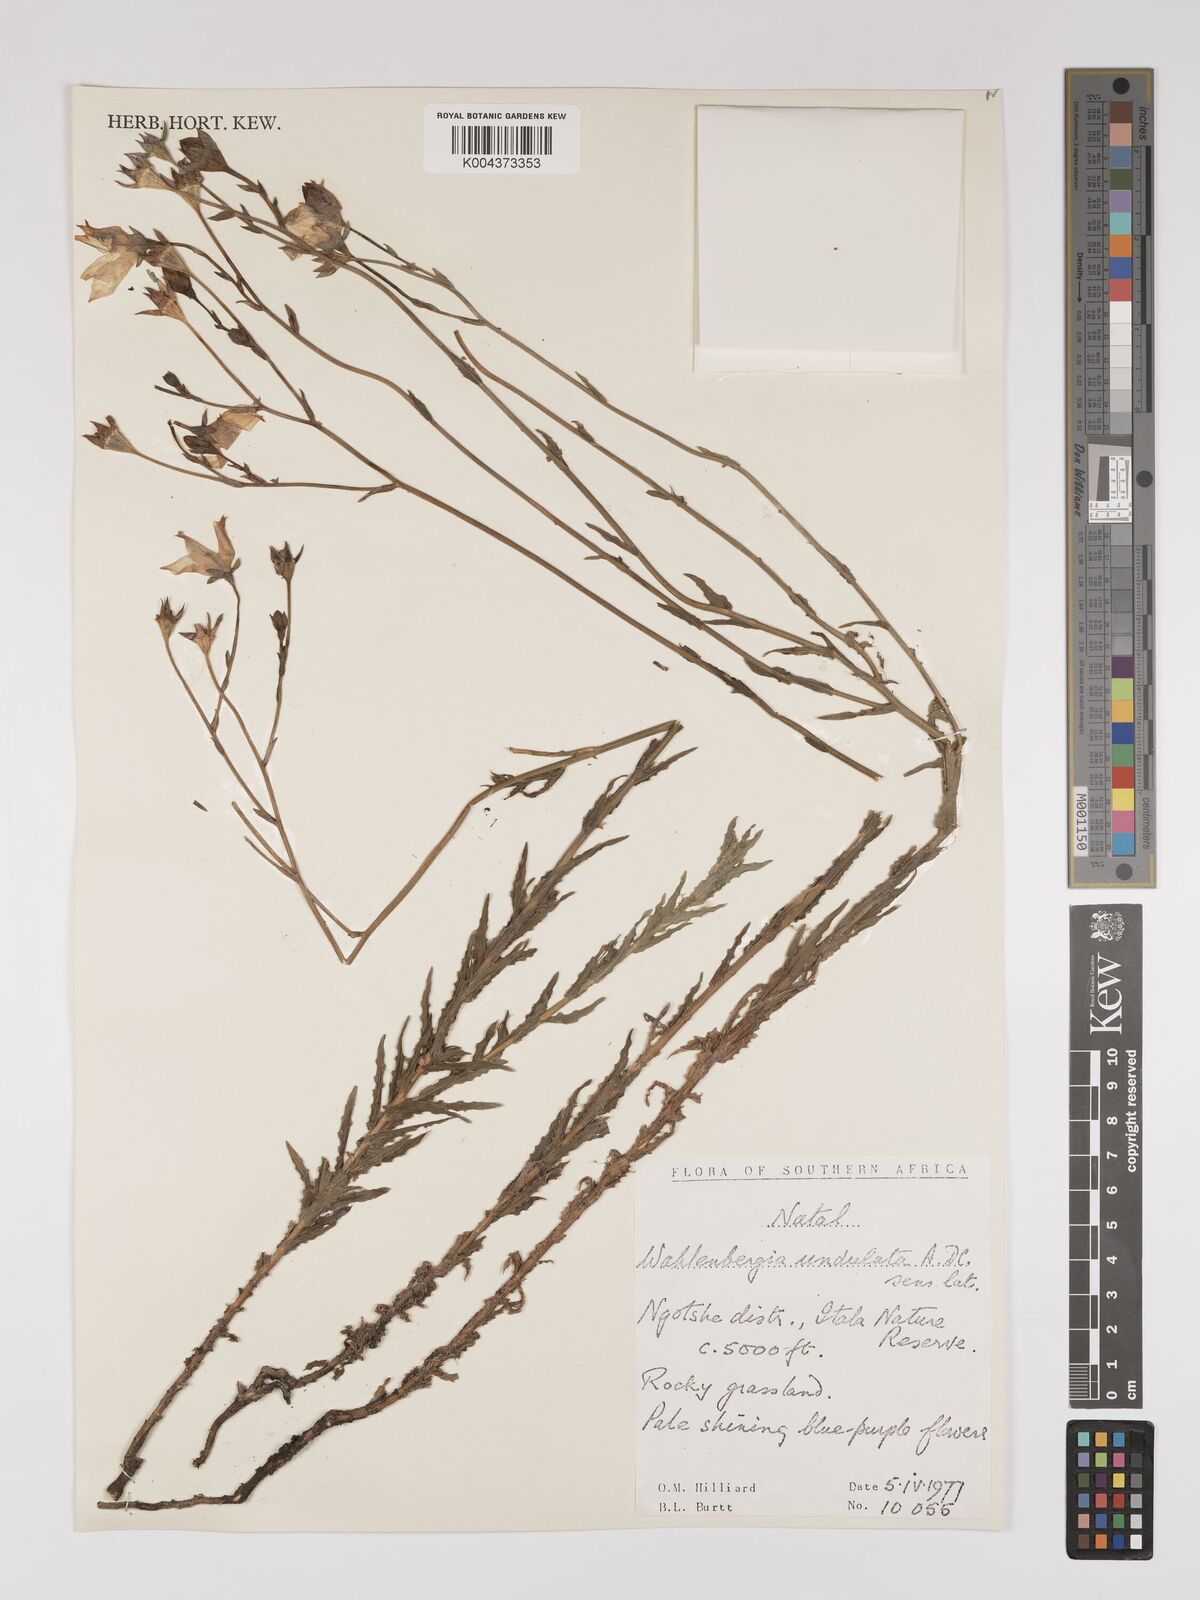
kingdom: Plantae
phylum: Tracheophyta
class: Magnoliopsida
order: Asterales
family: Campanulaceae
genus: Wahlenbergia
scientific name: Wahlenbergia undulata
